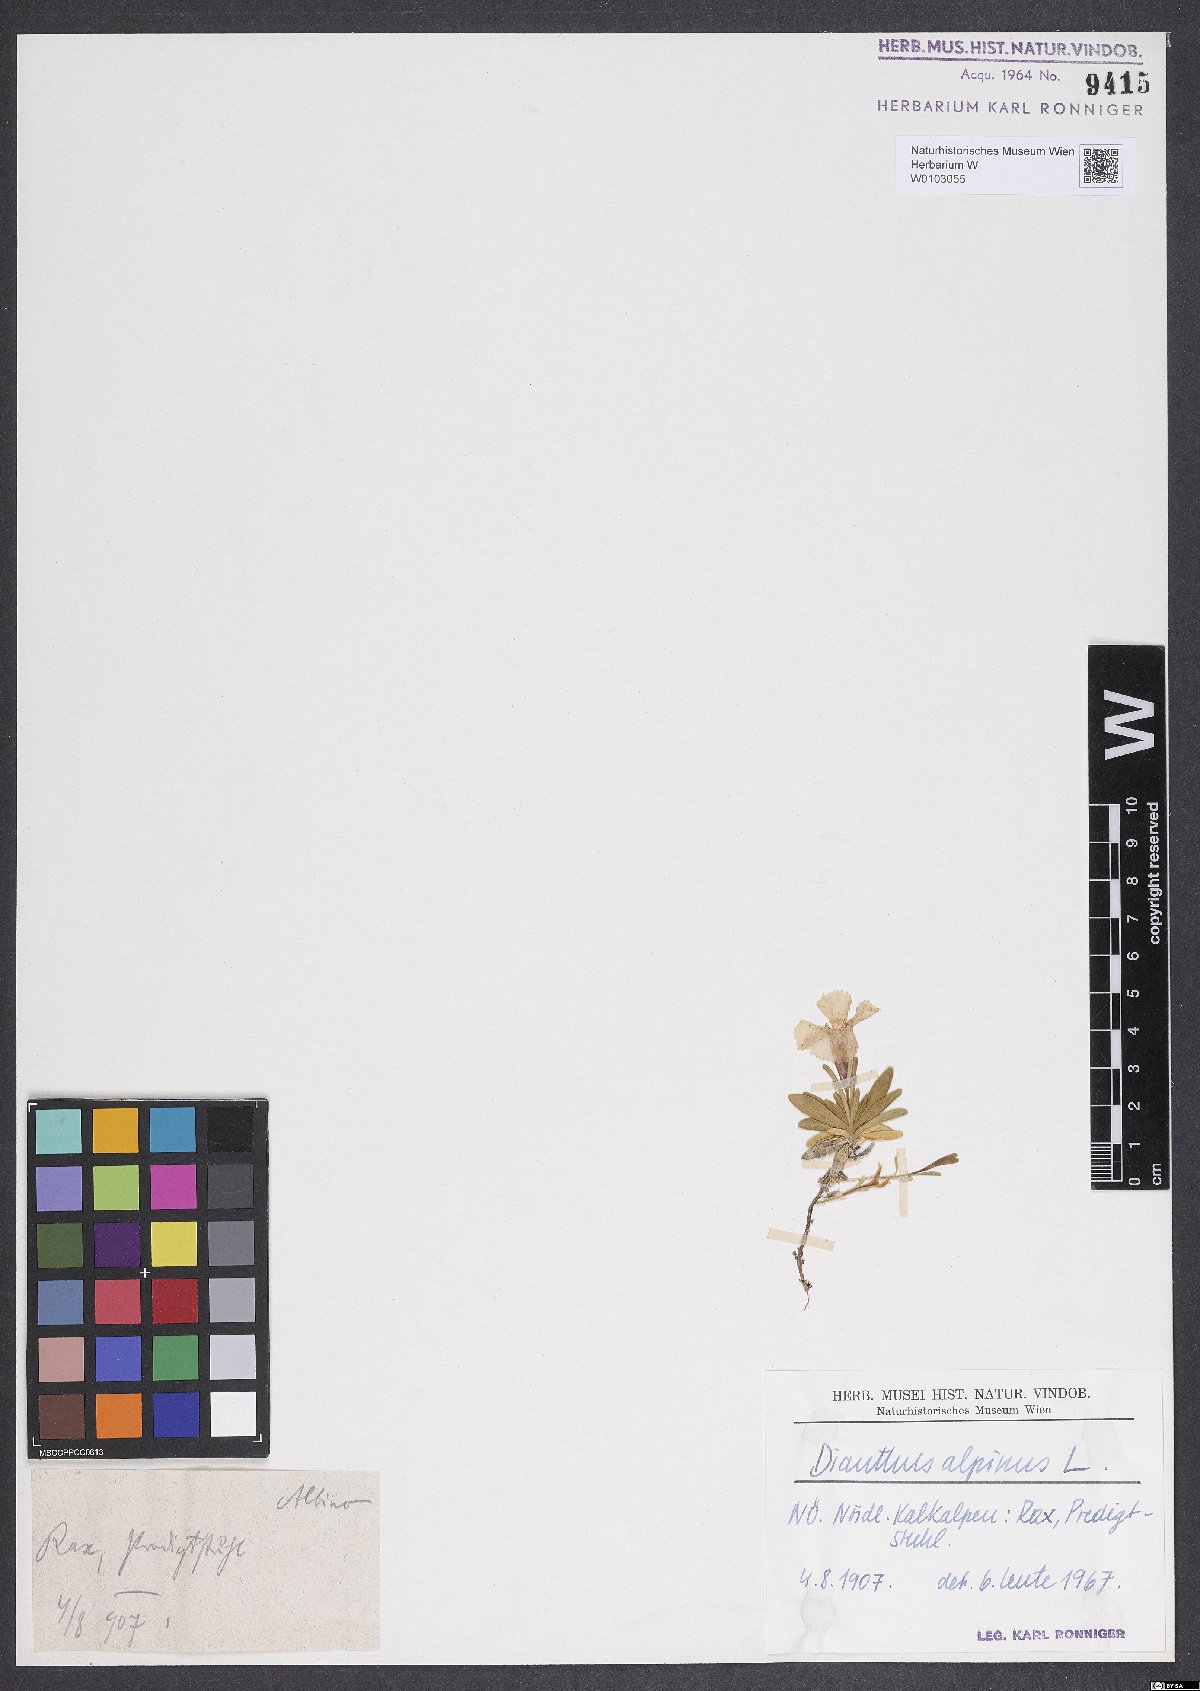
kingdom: Plantae
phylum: Tracheophyta
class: Magnoliopsida
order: Caryophyllales
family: Caryophyllaceae
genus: Dianthus
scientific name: Dianthus alpinus
